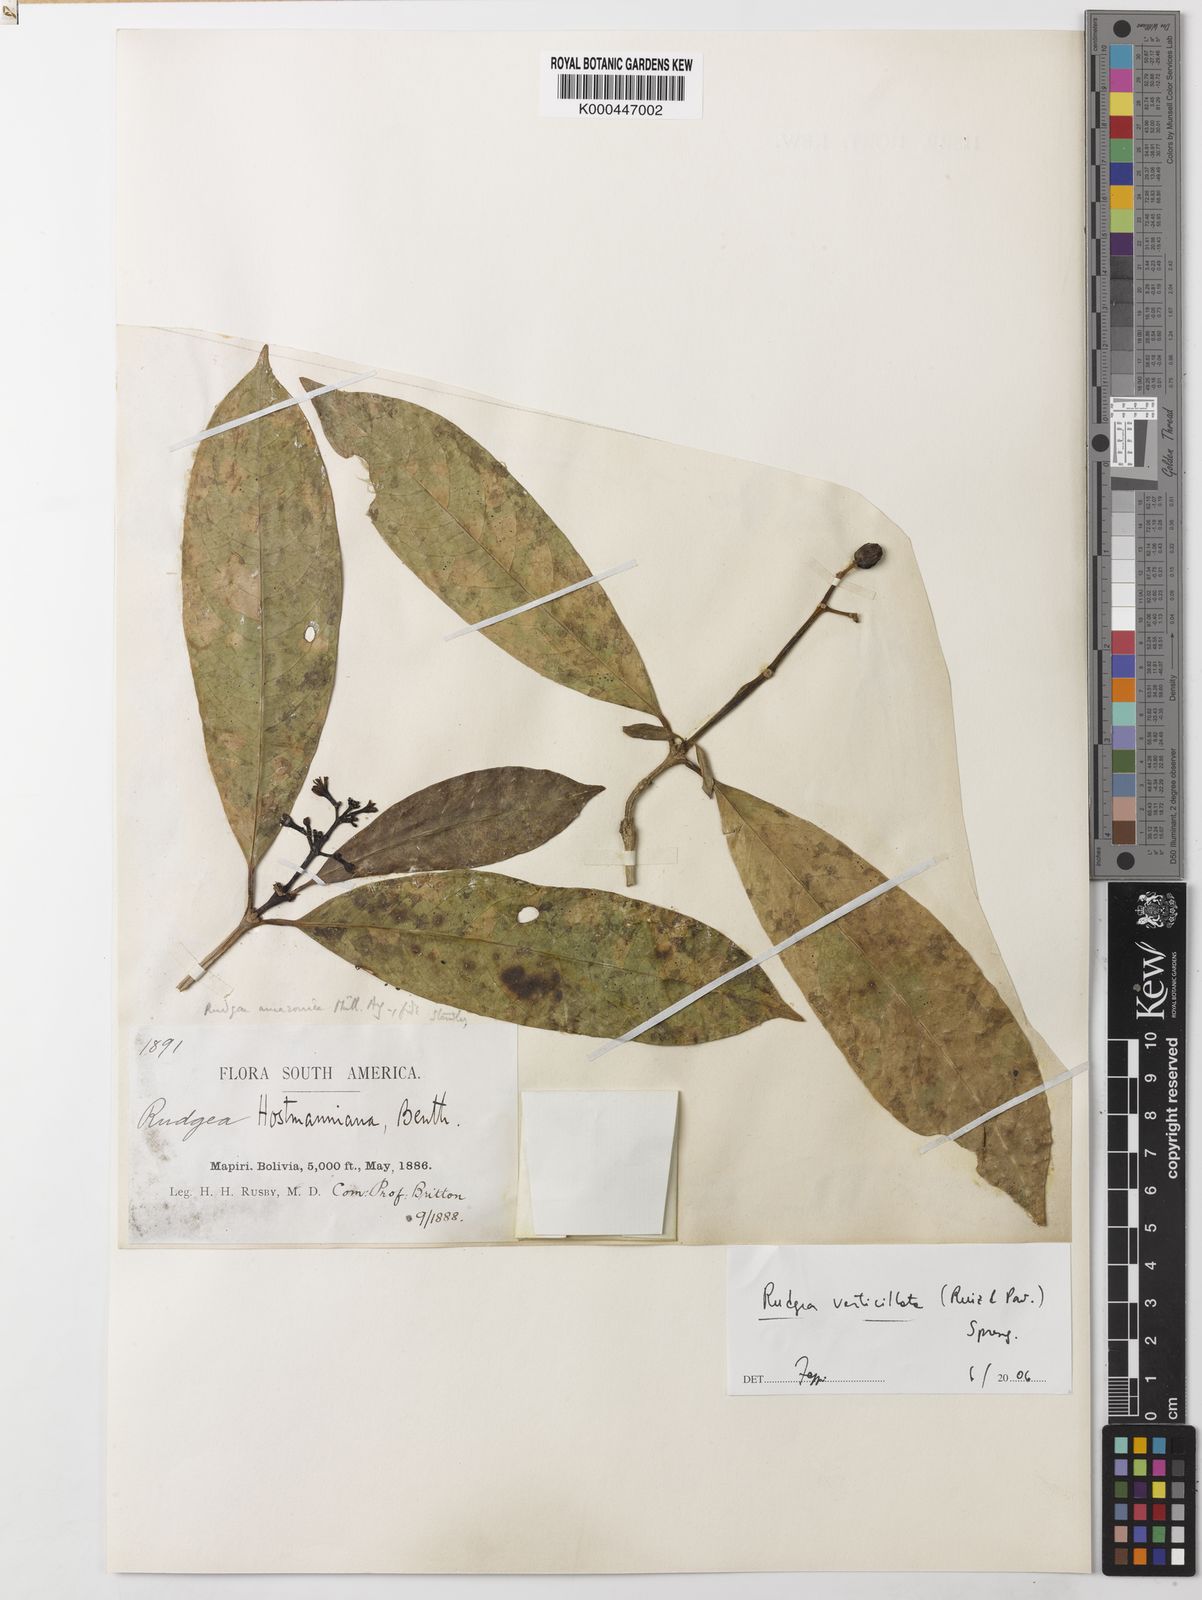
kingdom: Plantae
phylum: Tracheophyta
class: Magnoliopsida
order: Gentianales
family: Rubiaceae
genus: Rudgea
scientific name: Rudgea verticillata
